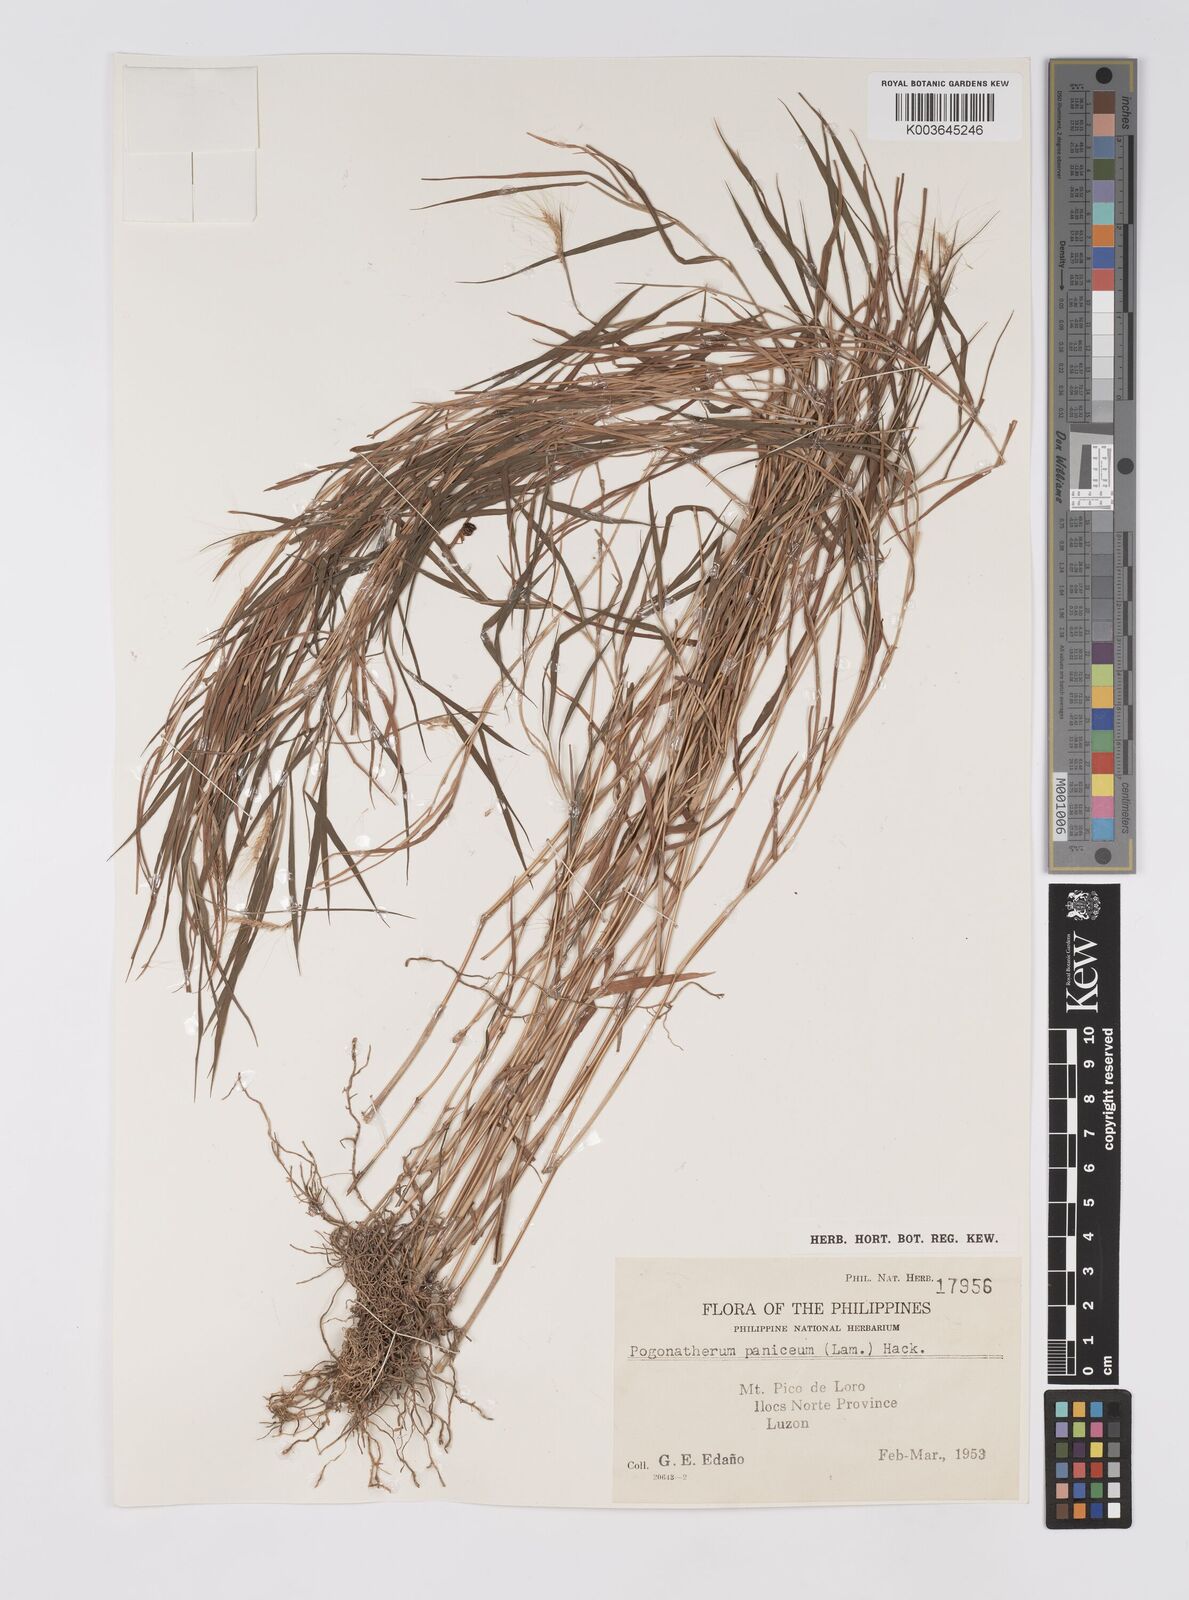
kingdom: Plantae
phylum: Tracheophyta
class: Liliopsida
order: Poales
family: Poaceae
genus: Pogonatherum
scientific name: Pogonatherum paniceum
